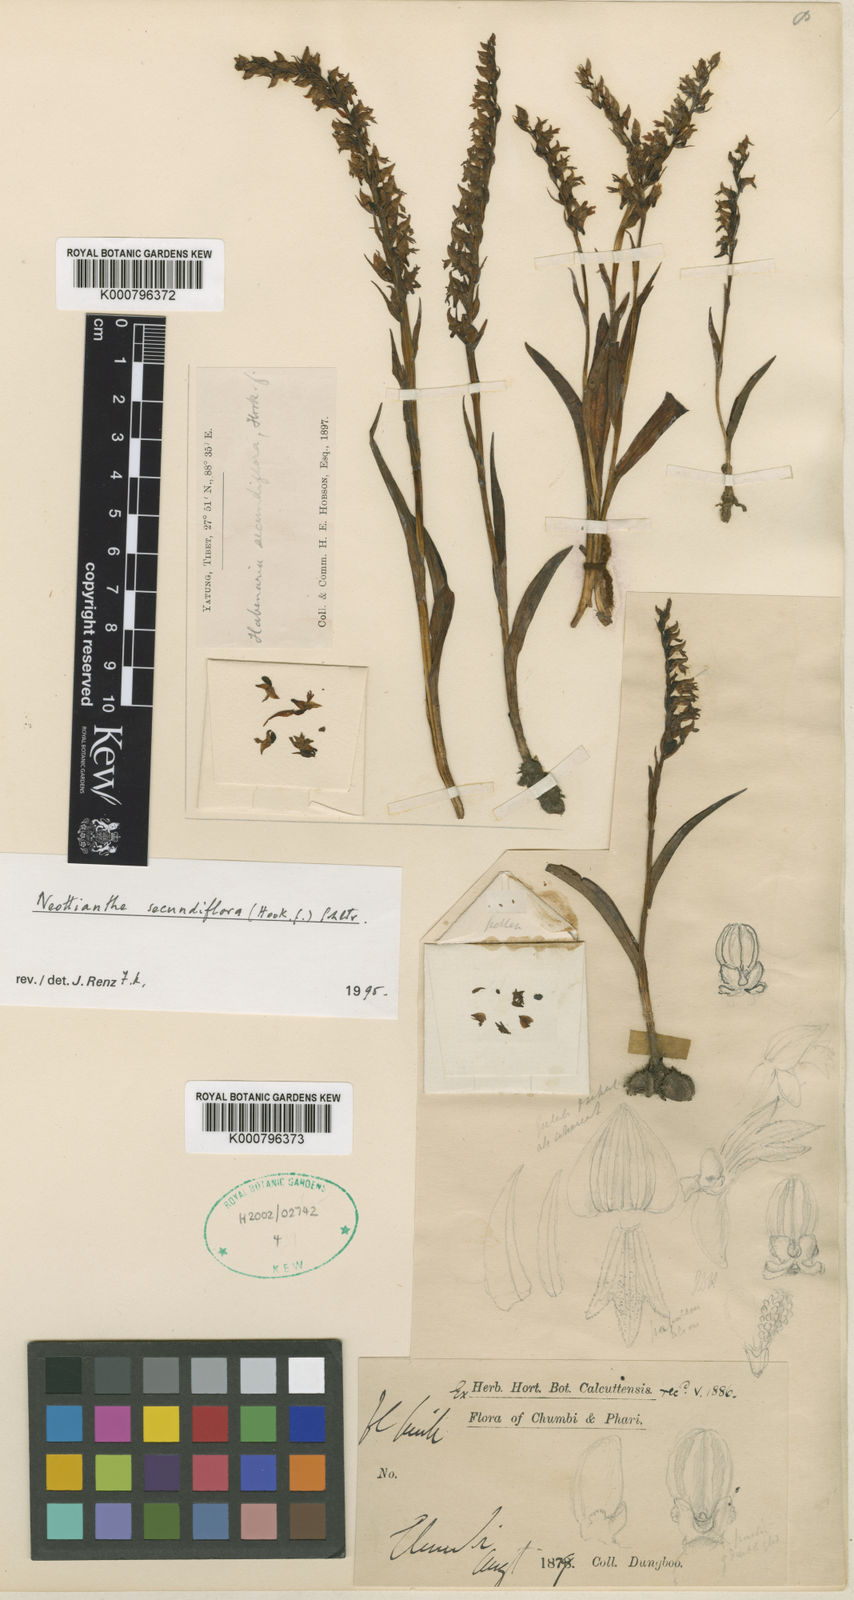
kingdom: Plantae
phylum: Tracheophyta
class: Liliopsida
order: Asparagales
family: Orchidaceae
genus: Hemipilia
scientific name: Hemipilia secundiflora
